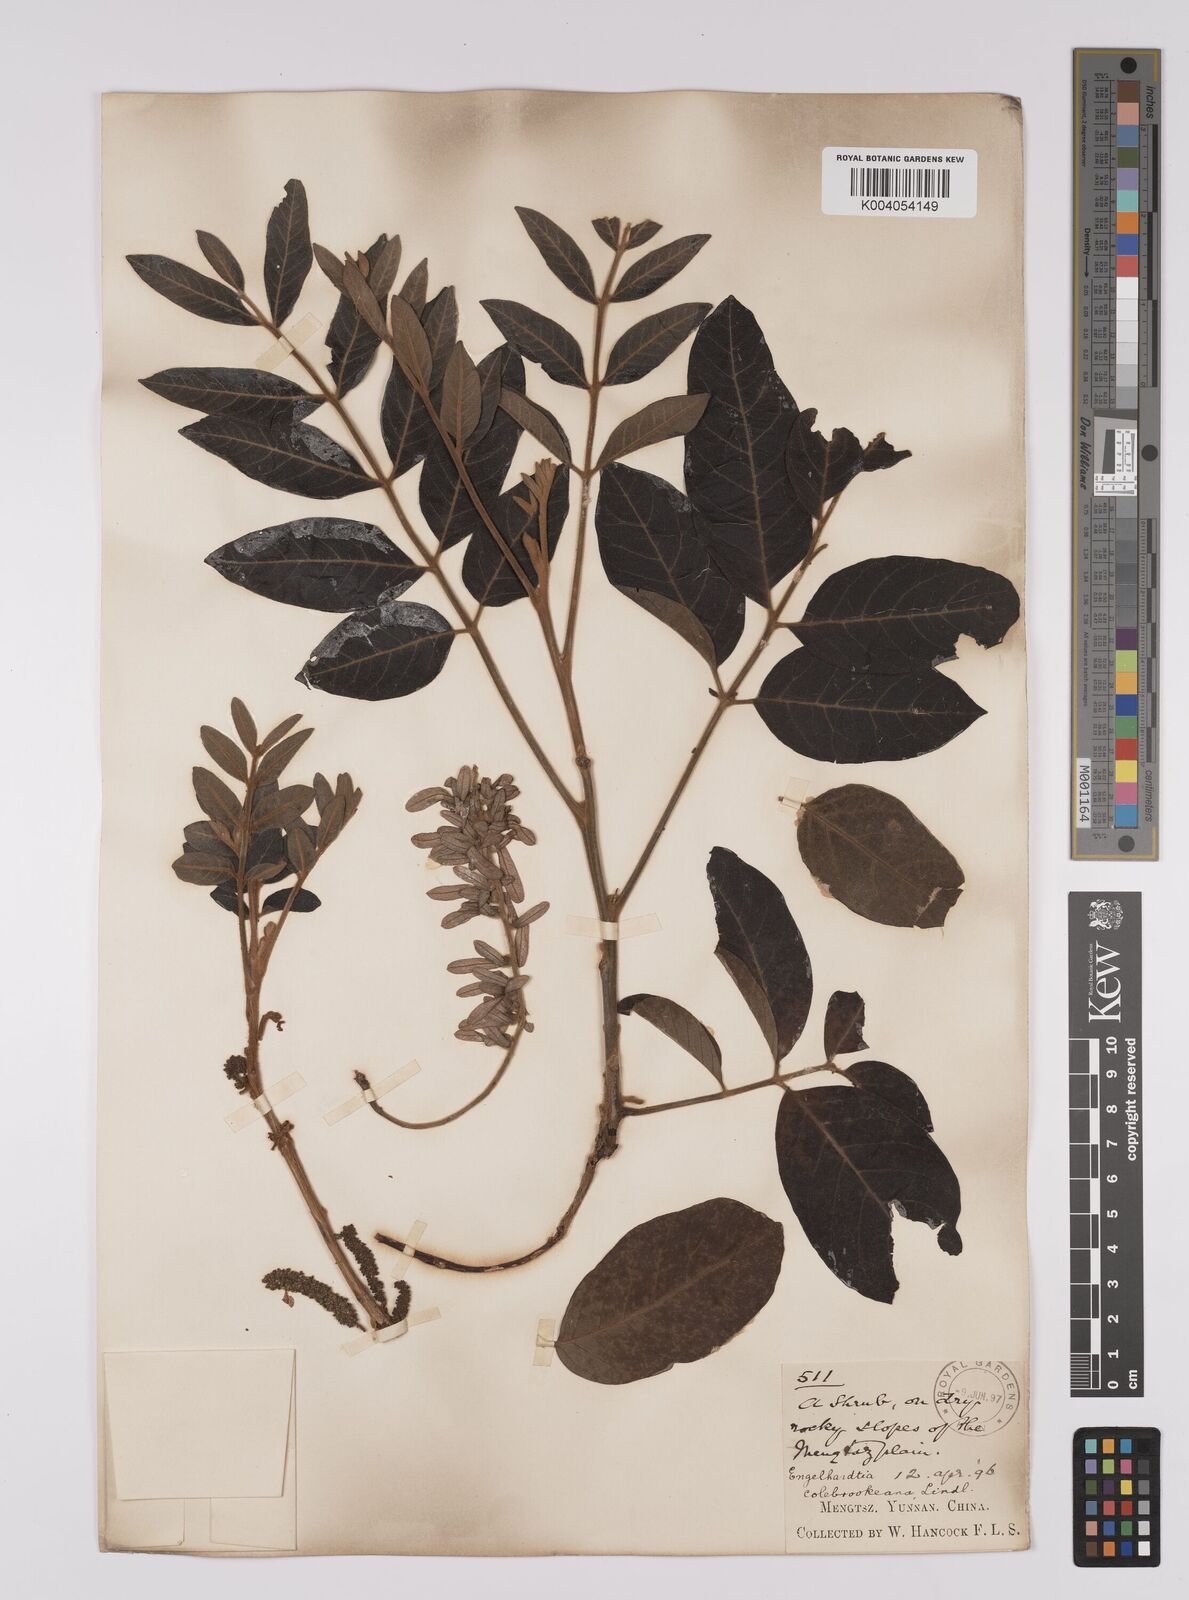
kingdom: Plantae
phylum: Tracheophyta
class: Magnoliopsida
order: Fagales
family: Juglandaceae
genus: Engelhardia
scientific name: Engelhardia spicata
